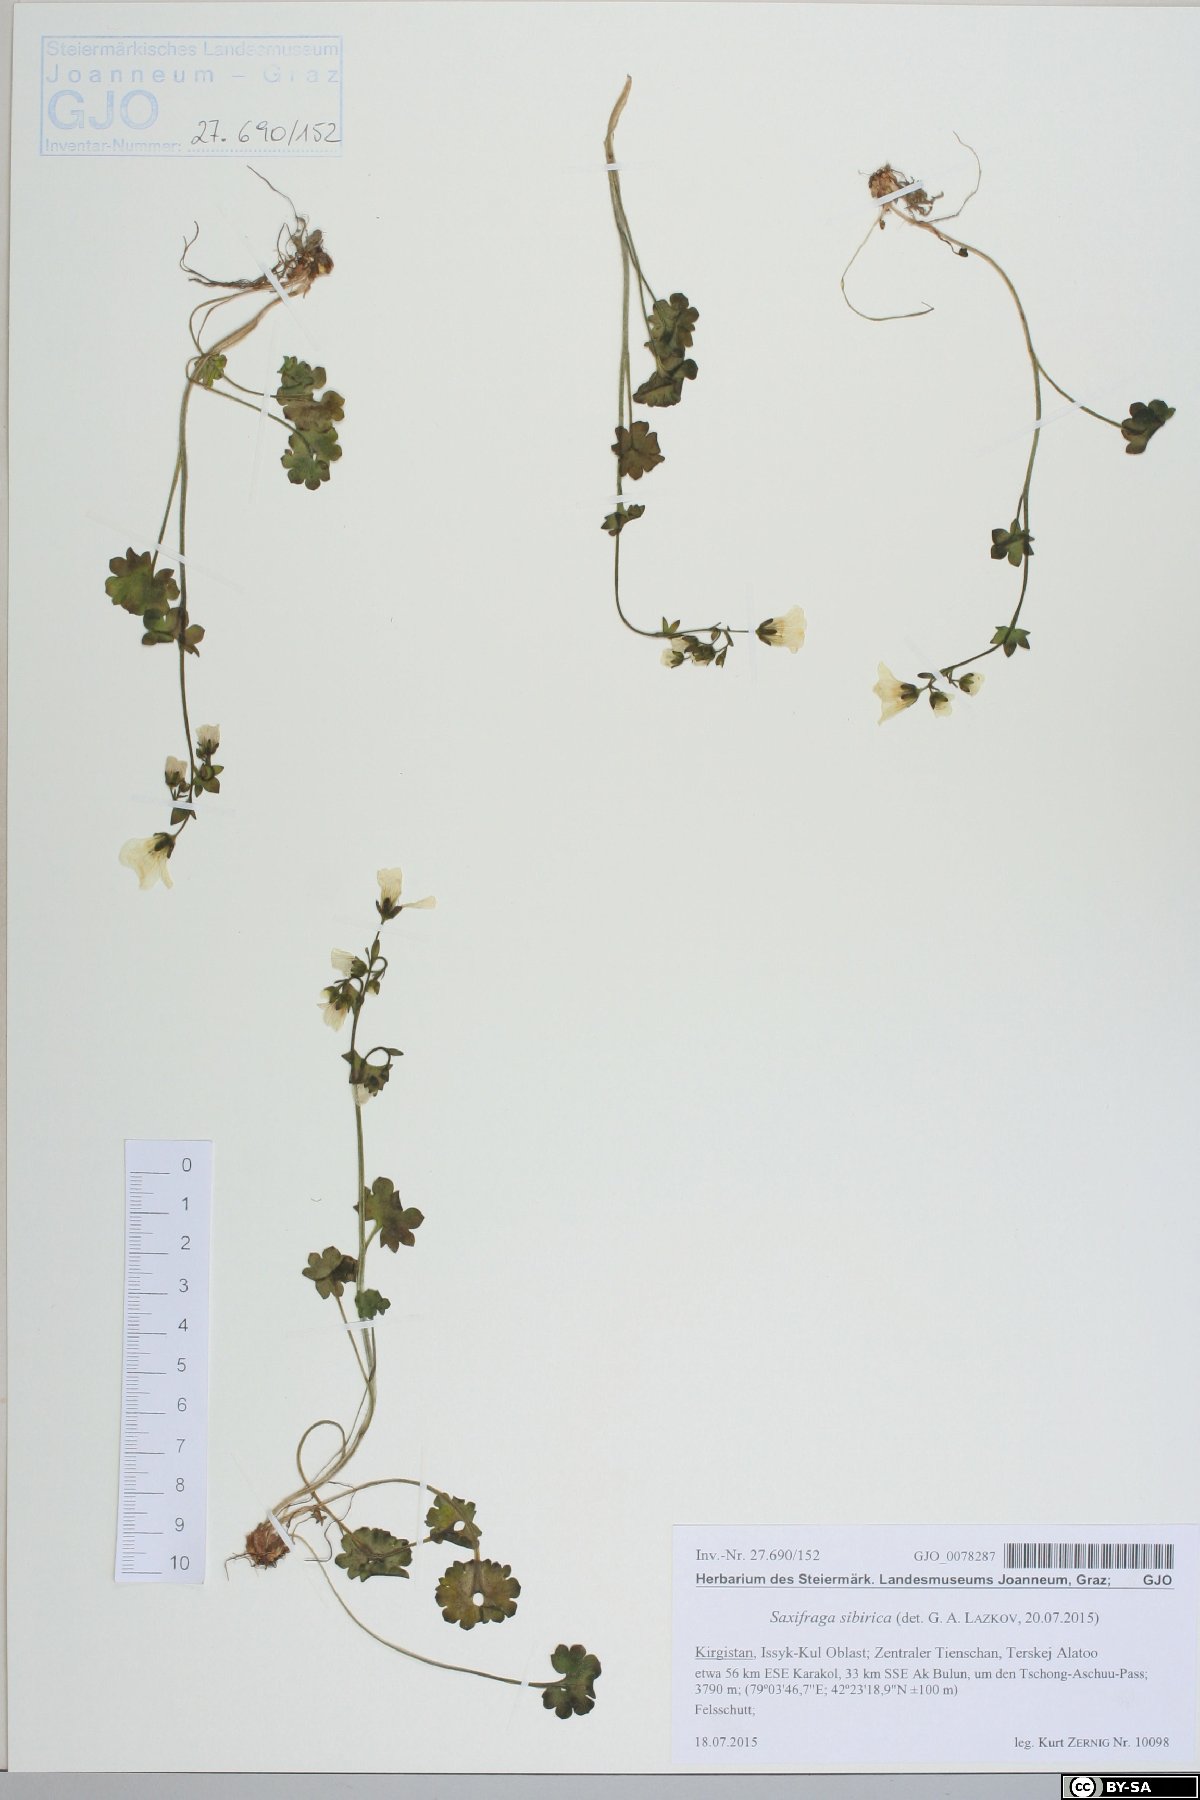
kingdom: Plantae
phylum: Tracheophyta
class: Magnoliopsida
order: Saxifragales
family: Saxifragaceae
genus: Saxifraga
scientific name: Saxifraga sibirica
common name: Siberian saxifrage
